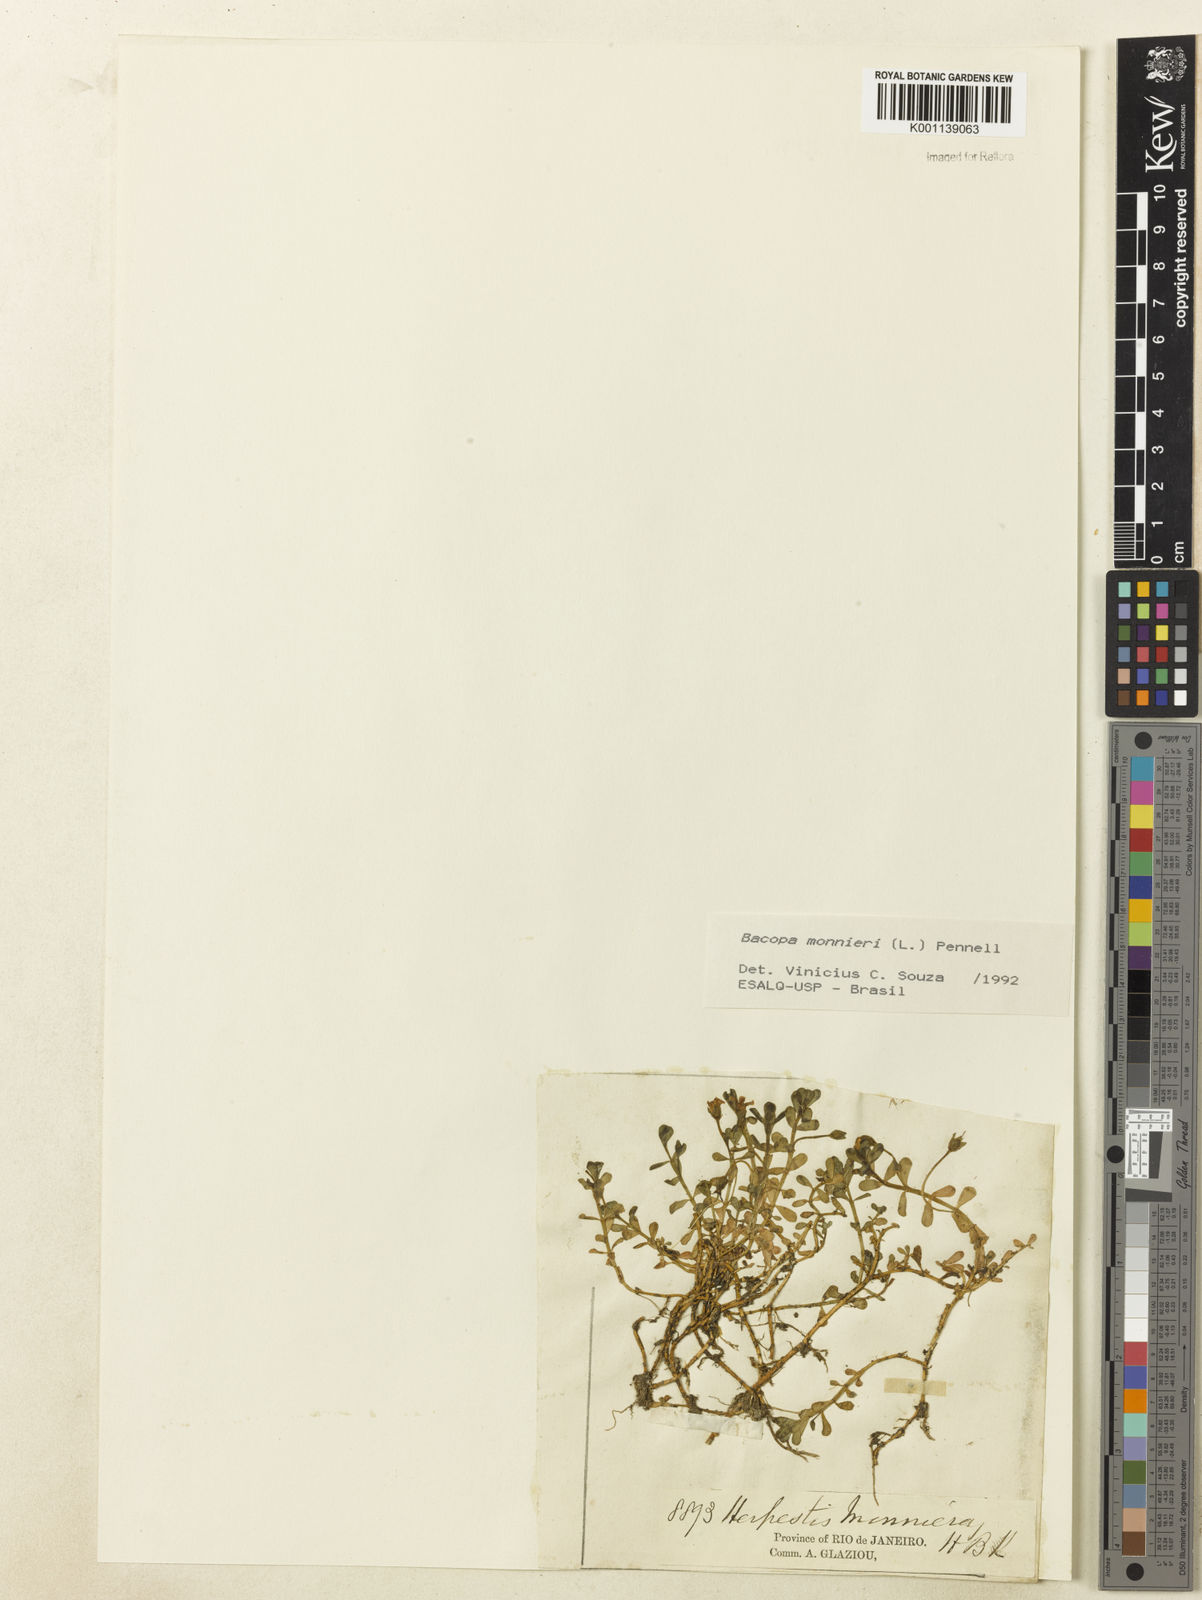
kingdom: Plantae
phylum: Tracheophyta
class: Magnoliopsida
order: Lamiales
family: Plantaginaceae
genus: Bacopa
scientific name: Bacopa
